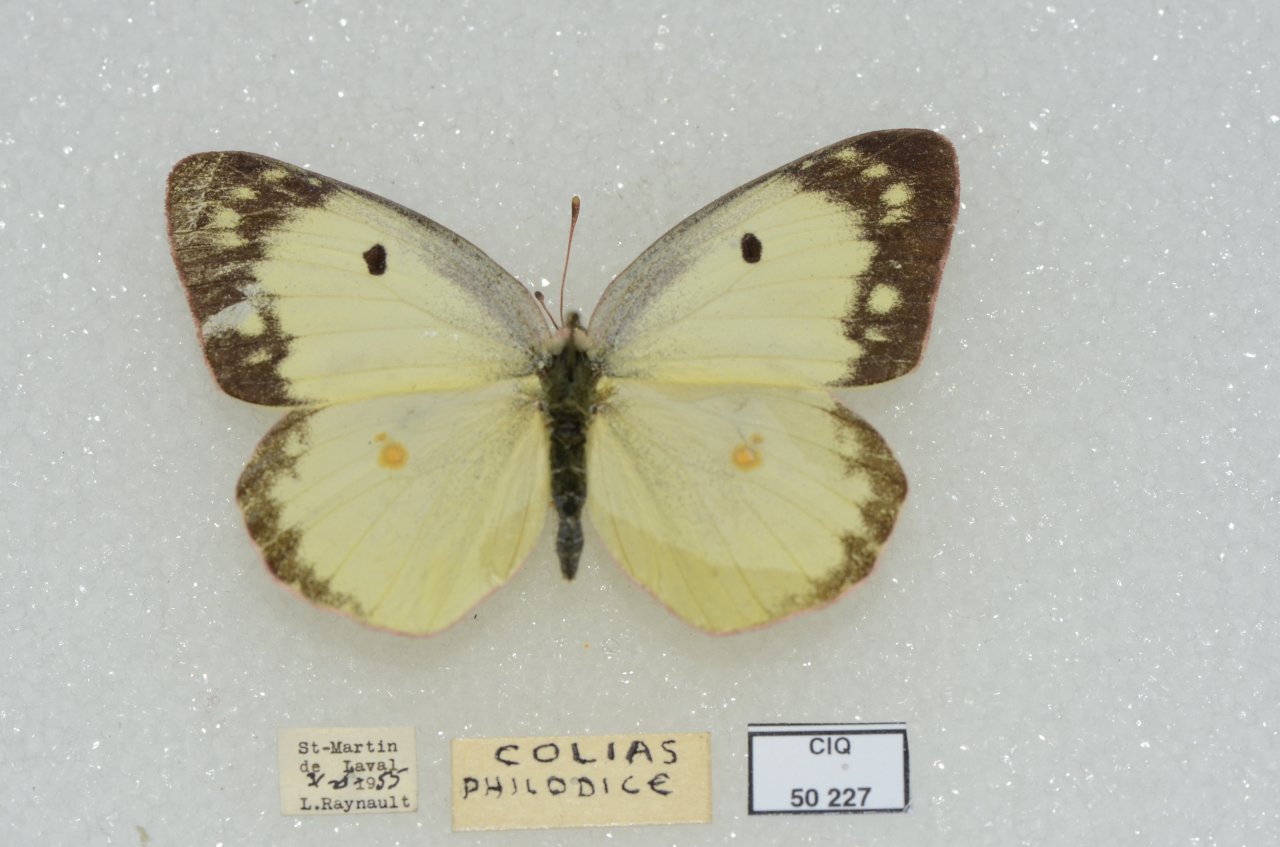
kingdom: Animalia
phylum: Arthropoda
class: Insecta
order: Lepidoptera
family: Pieridae
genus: Colias
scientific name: Colias philodice
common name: Clouded Sulphur
